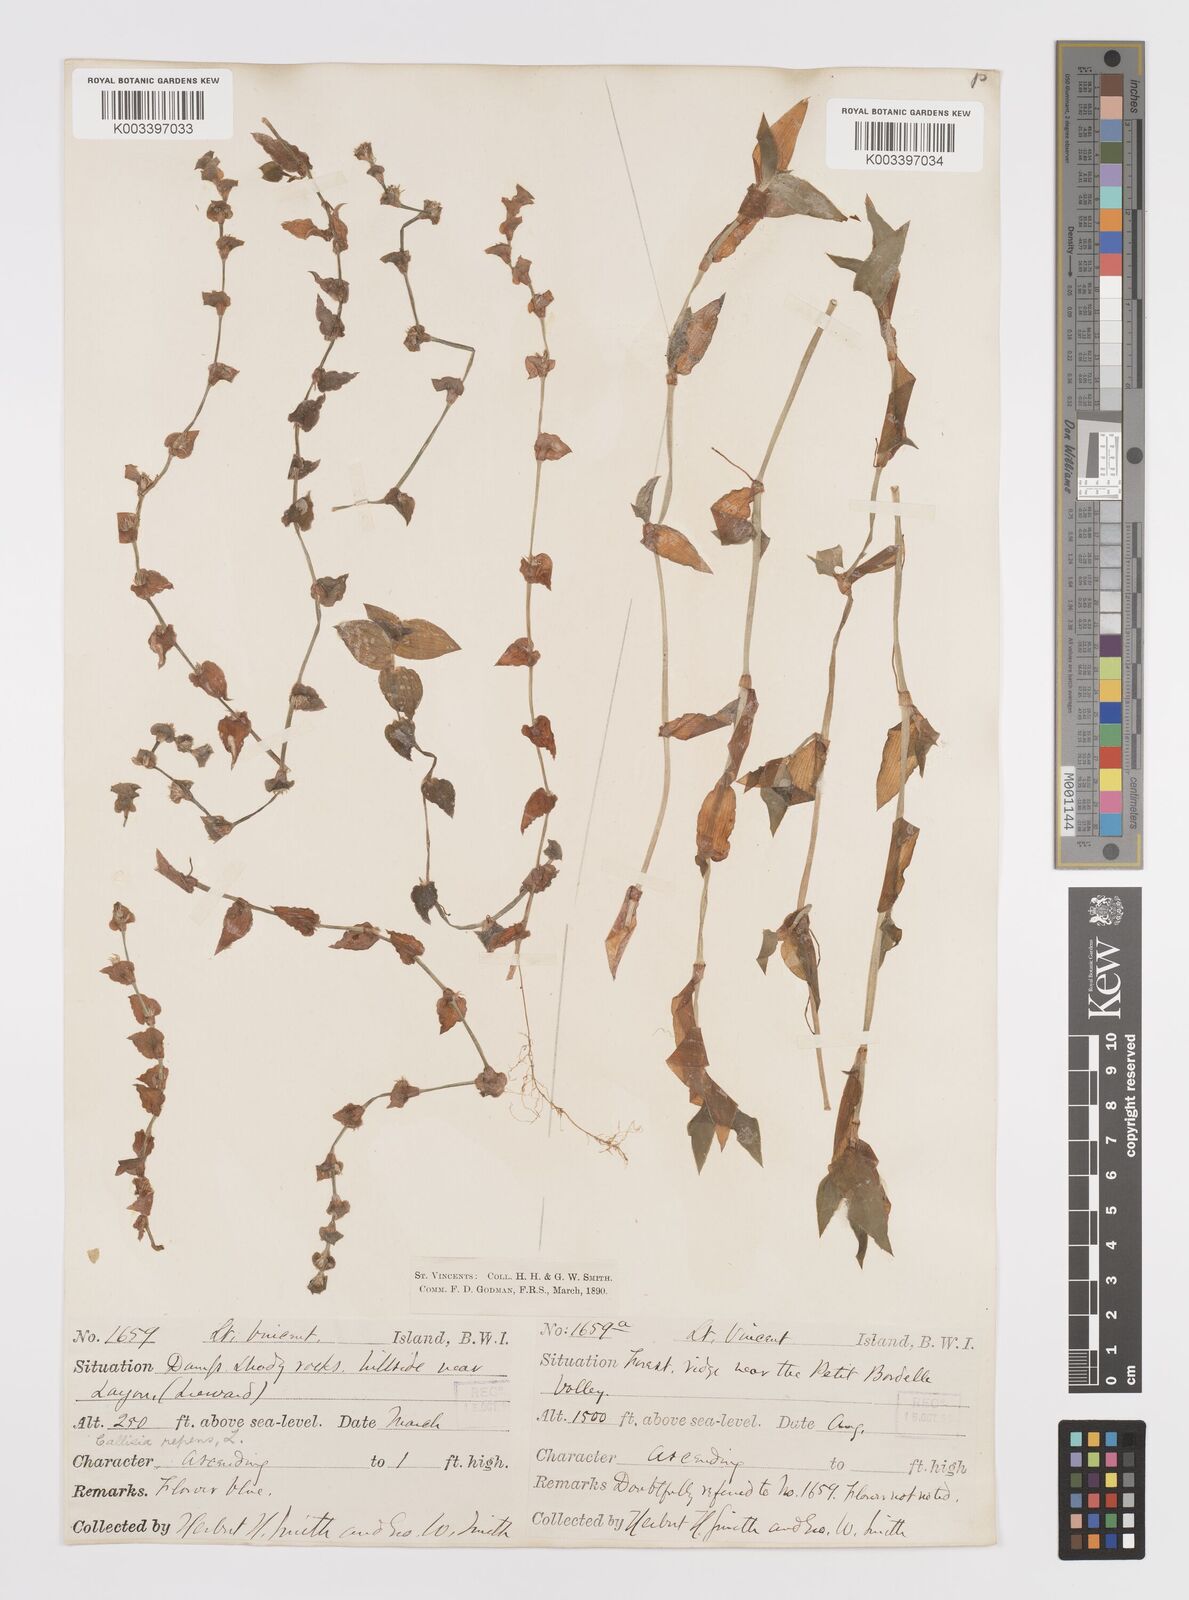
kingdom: Plantae
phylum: Tracheophyta
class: Liliopsida
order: Commelinales
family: Commelinaceae
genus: Callisia
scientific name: Callisia repens
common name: Creeping inchplant
